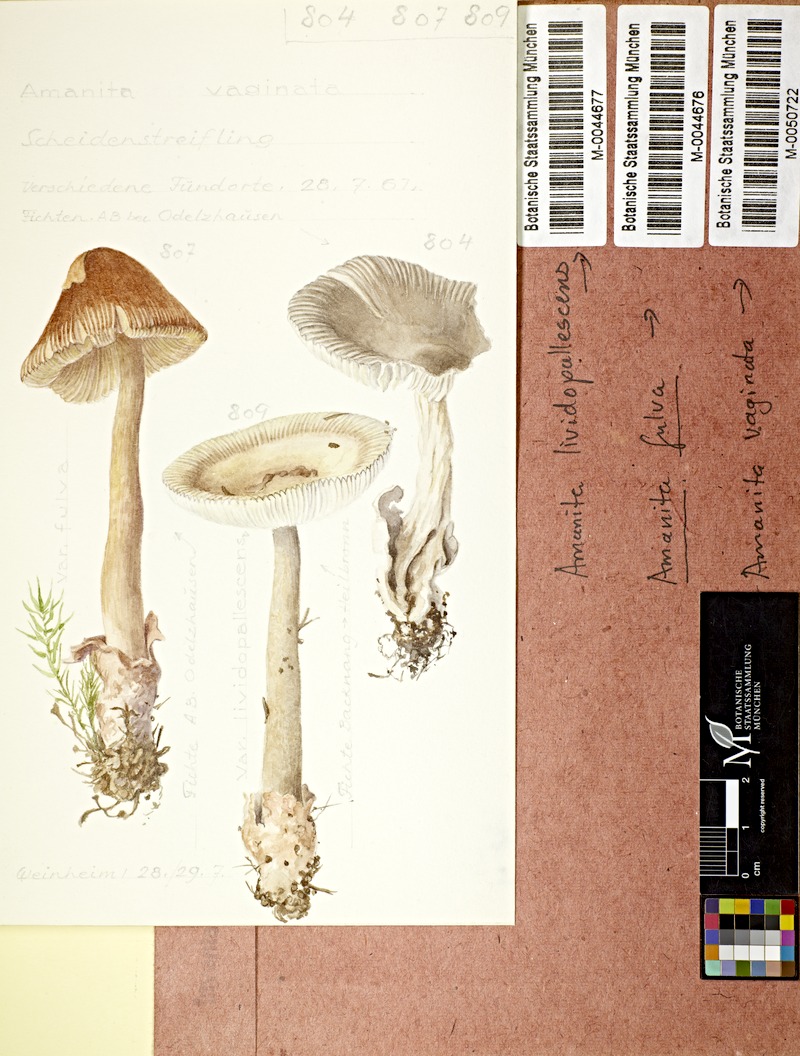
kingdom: Fungi
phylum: Basidiomycota
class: Agaricomycetes
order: Agaricales
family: Amanitaceae
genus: Amanita
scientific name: Amanita vaginata
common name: Grisette
